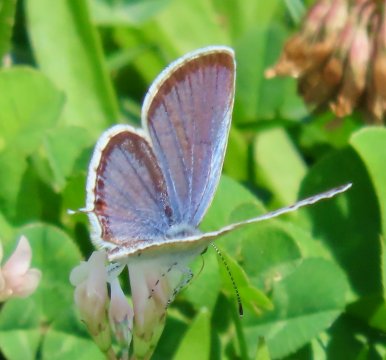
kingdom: Animalia
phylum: Arthropoda
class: Insecta
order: Lepidoptera
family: Lycaenidae
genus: Elkalyce
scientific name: Elkalyce comyntas
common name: Eastern Tailed-Blue
